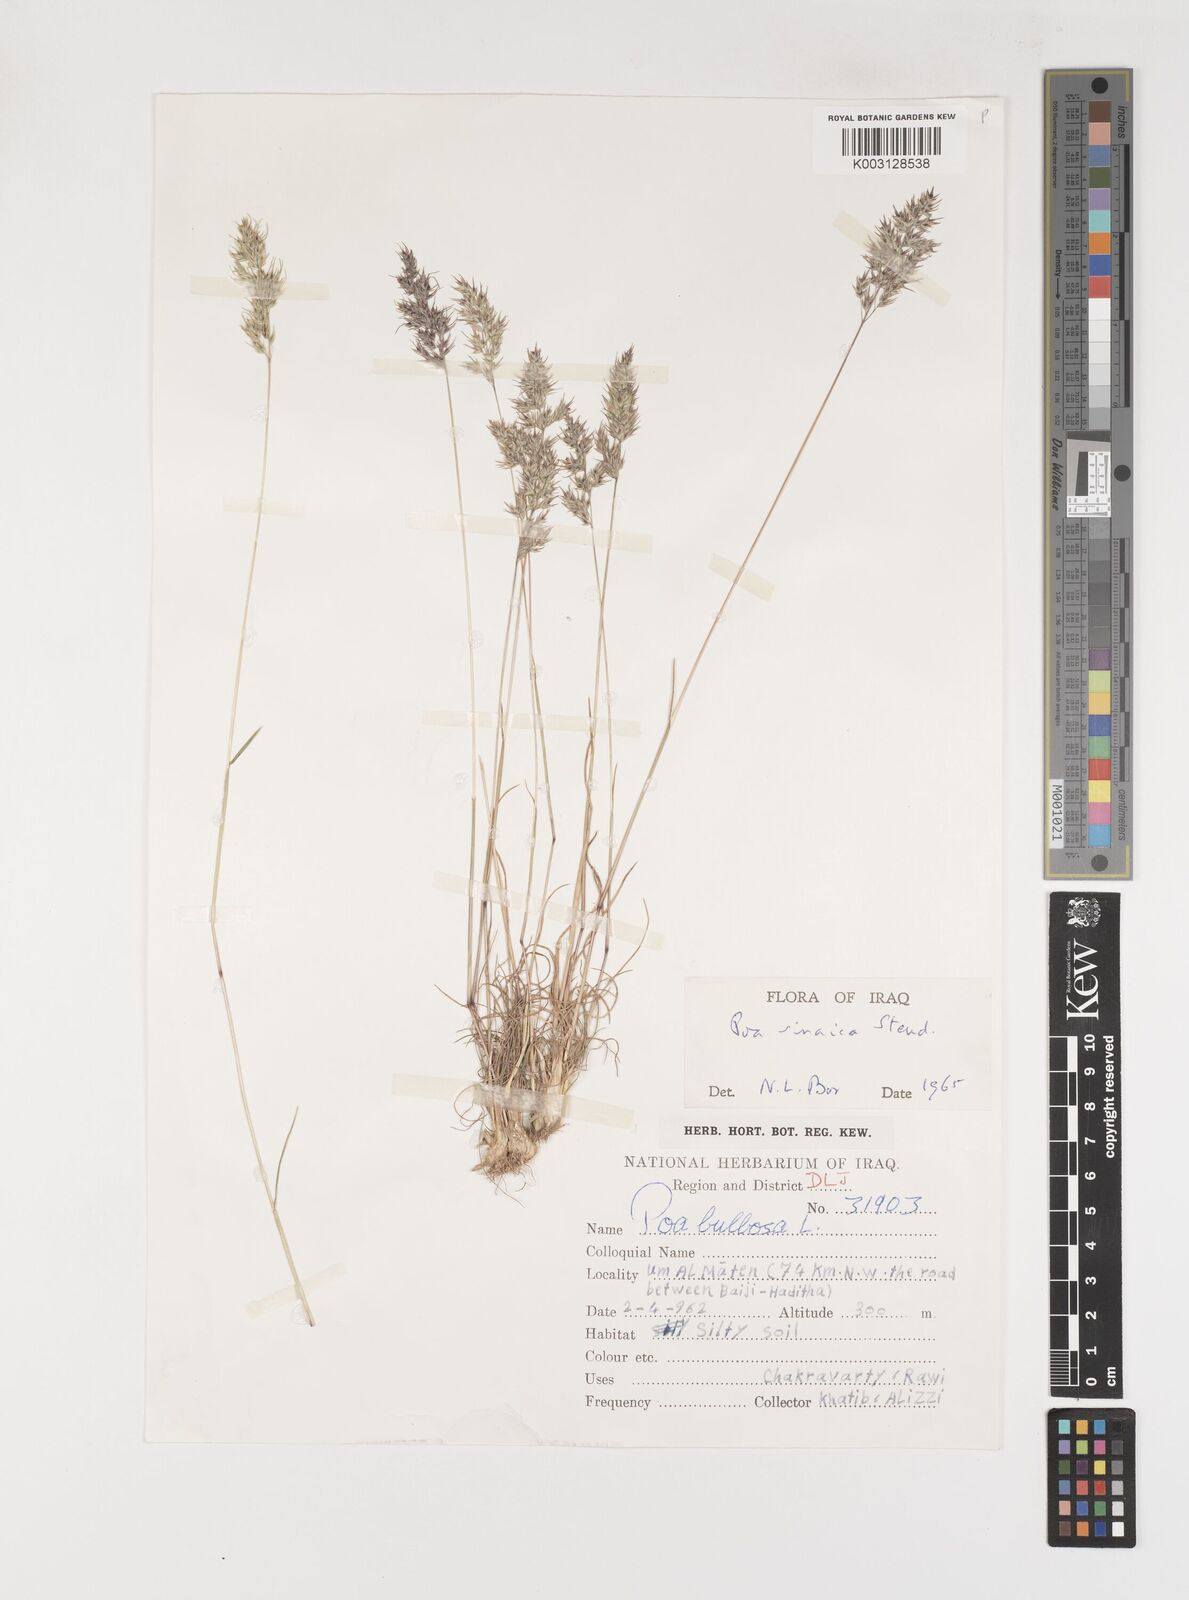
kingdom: Plantae
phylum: Tracheophyta
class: Liliopsida
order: Poales
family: Poaceae
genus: Poa
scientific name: Poa sinaica
